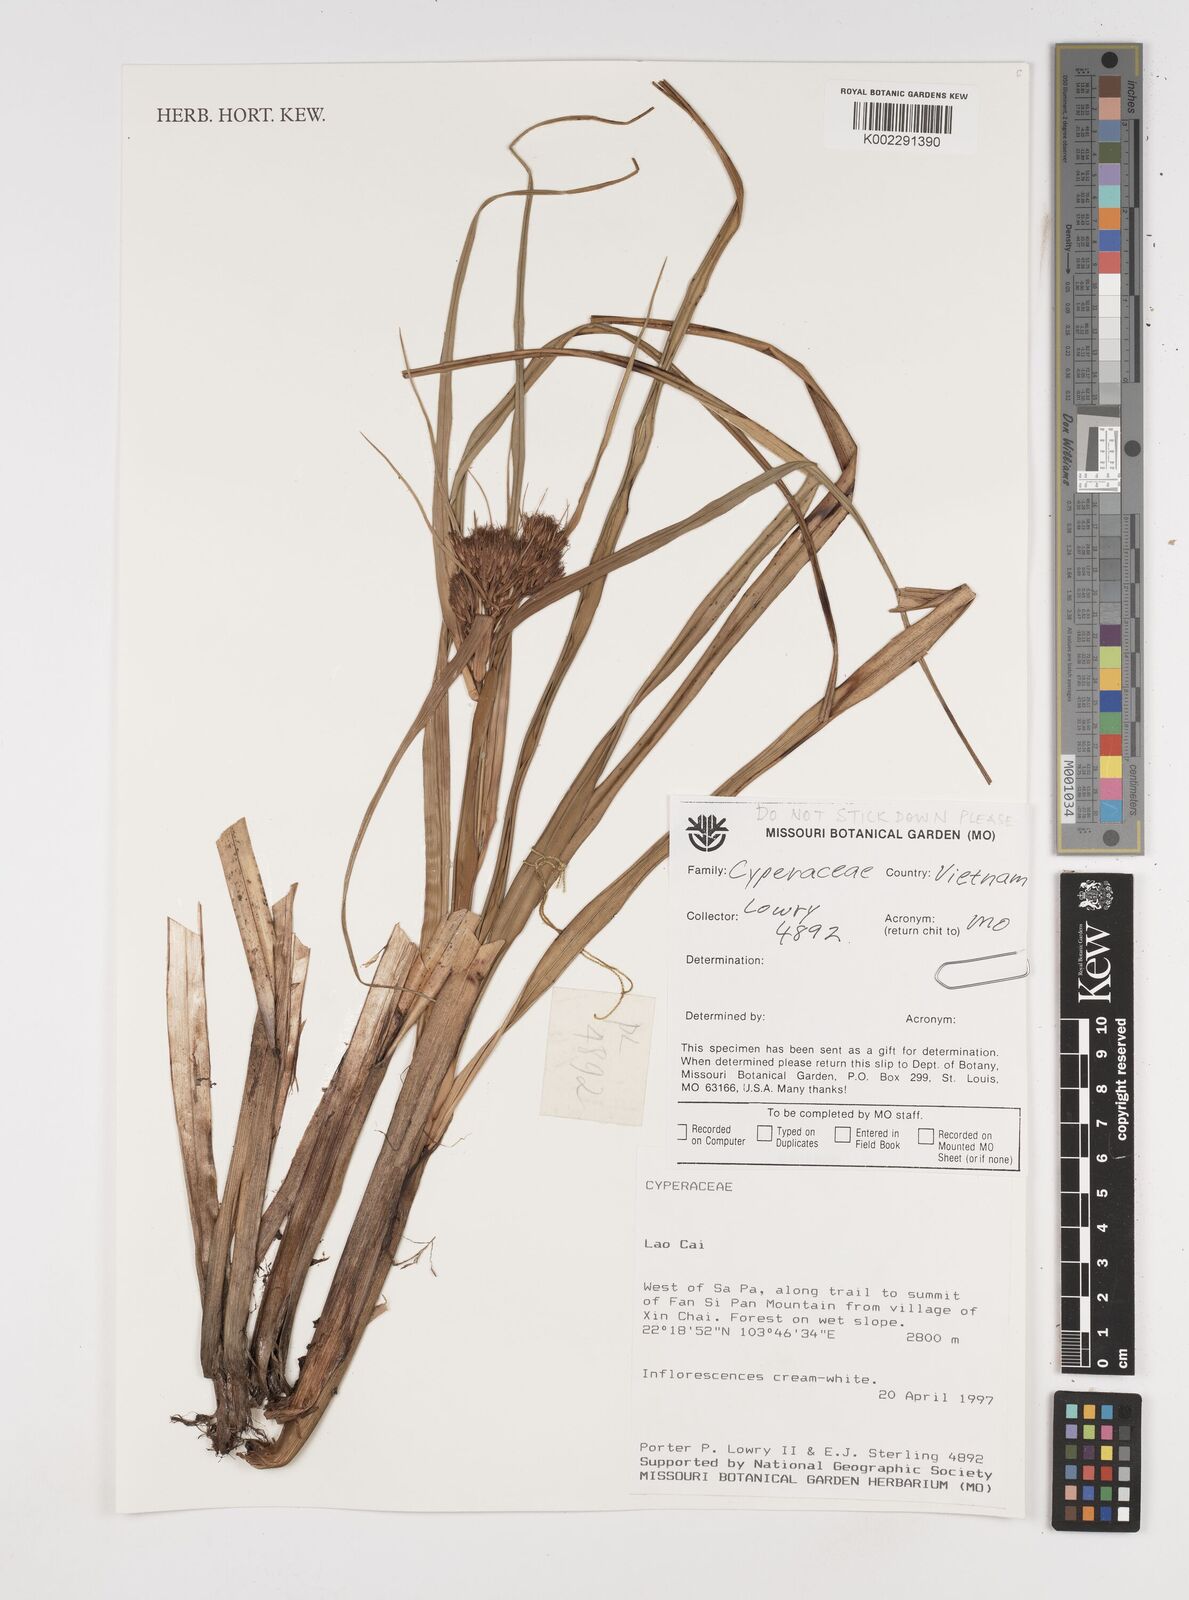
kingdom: Plantae
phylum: Tracheophyta
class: Liliopsida
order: Poales
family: Cyperaceae
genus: Cyperus
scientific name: Cyperus
